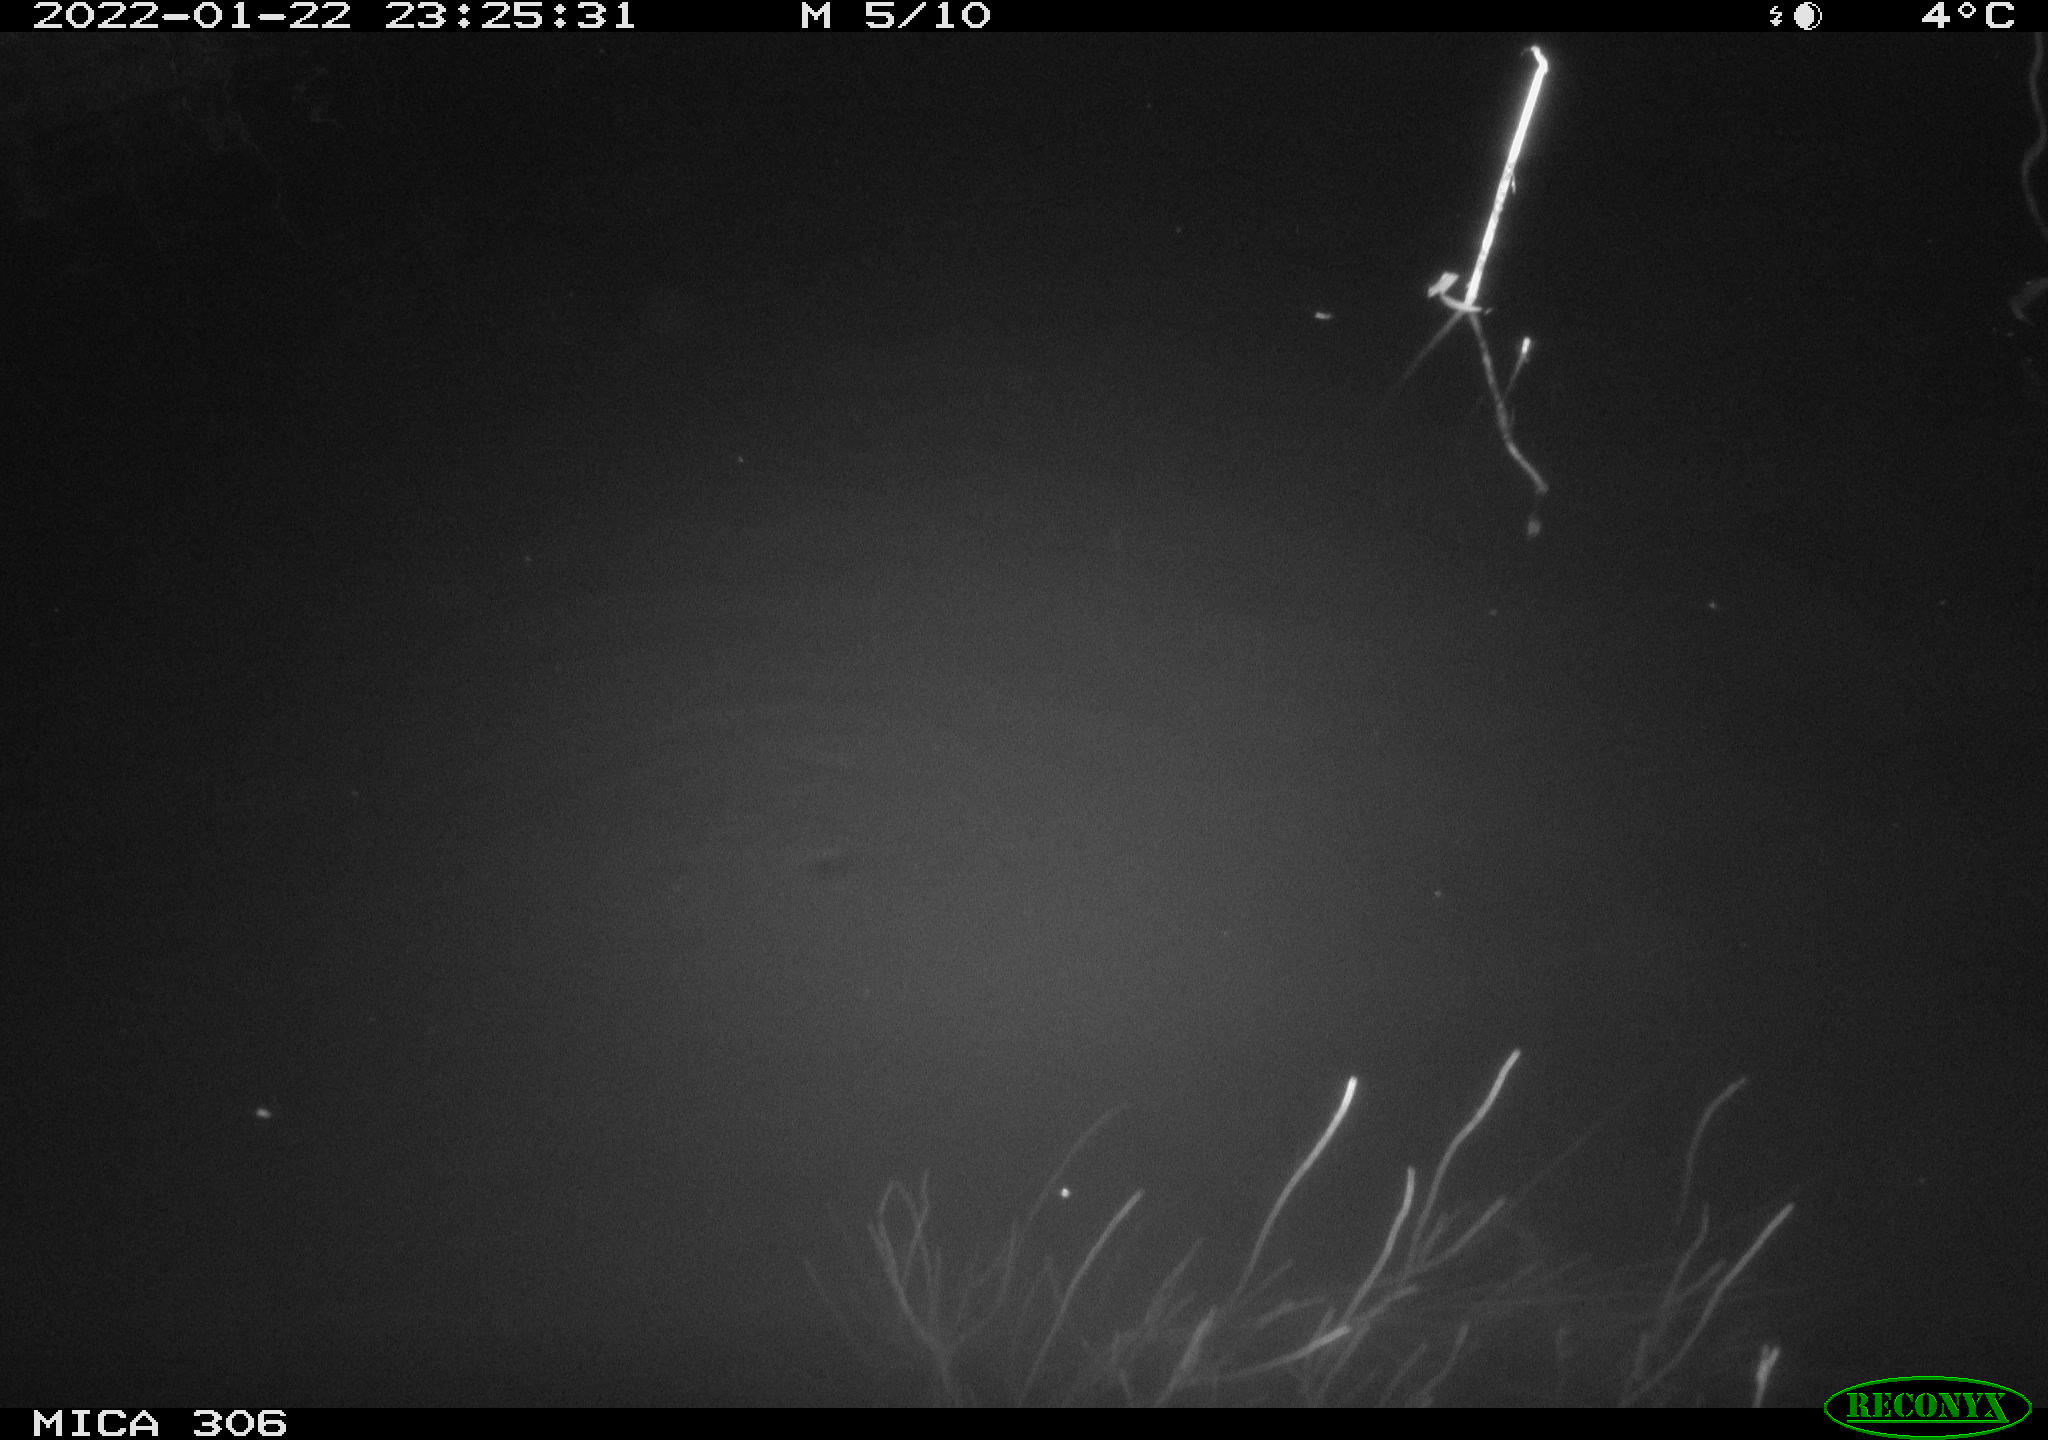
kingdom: Animalia
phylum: Chordata
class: Mammalia
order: Rodentia
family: Cricetidae
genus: Ondatra
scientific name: Ondatra zibethicus
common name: Muskrat
